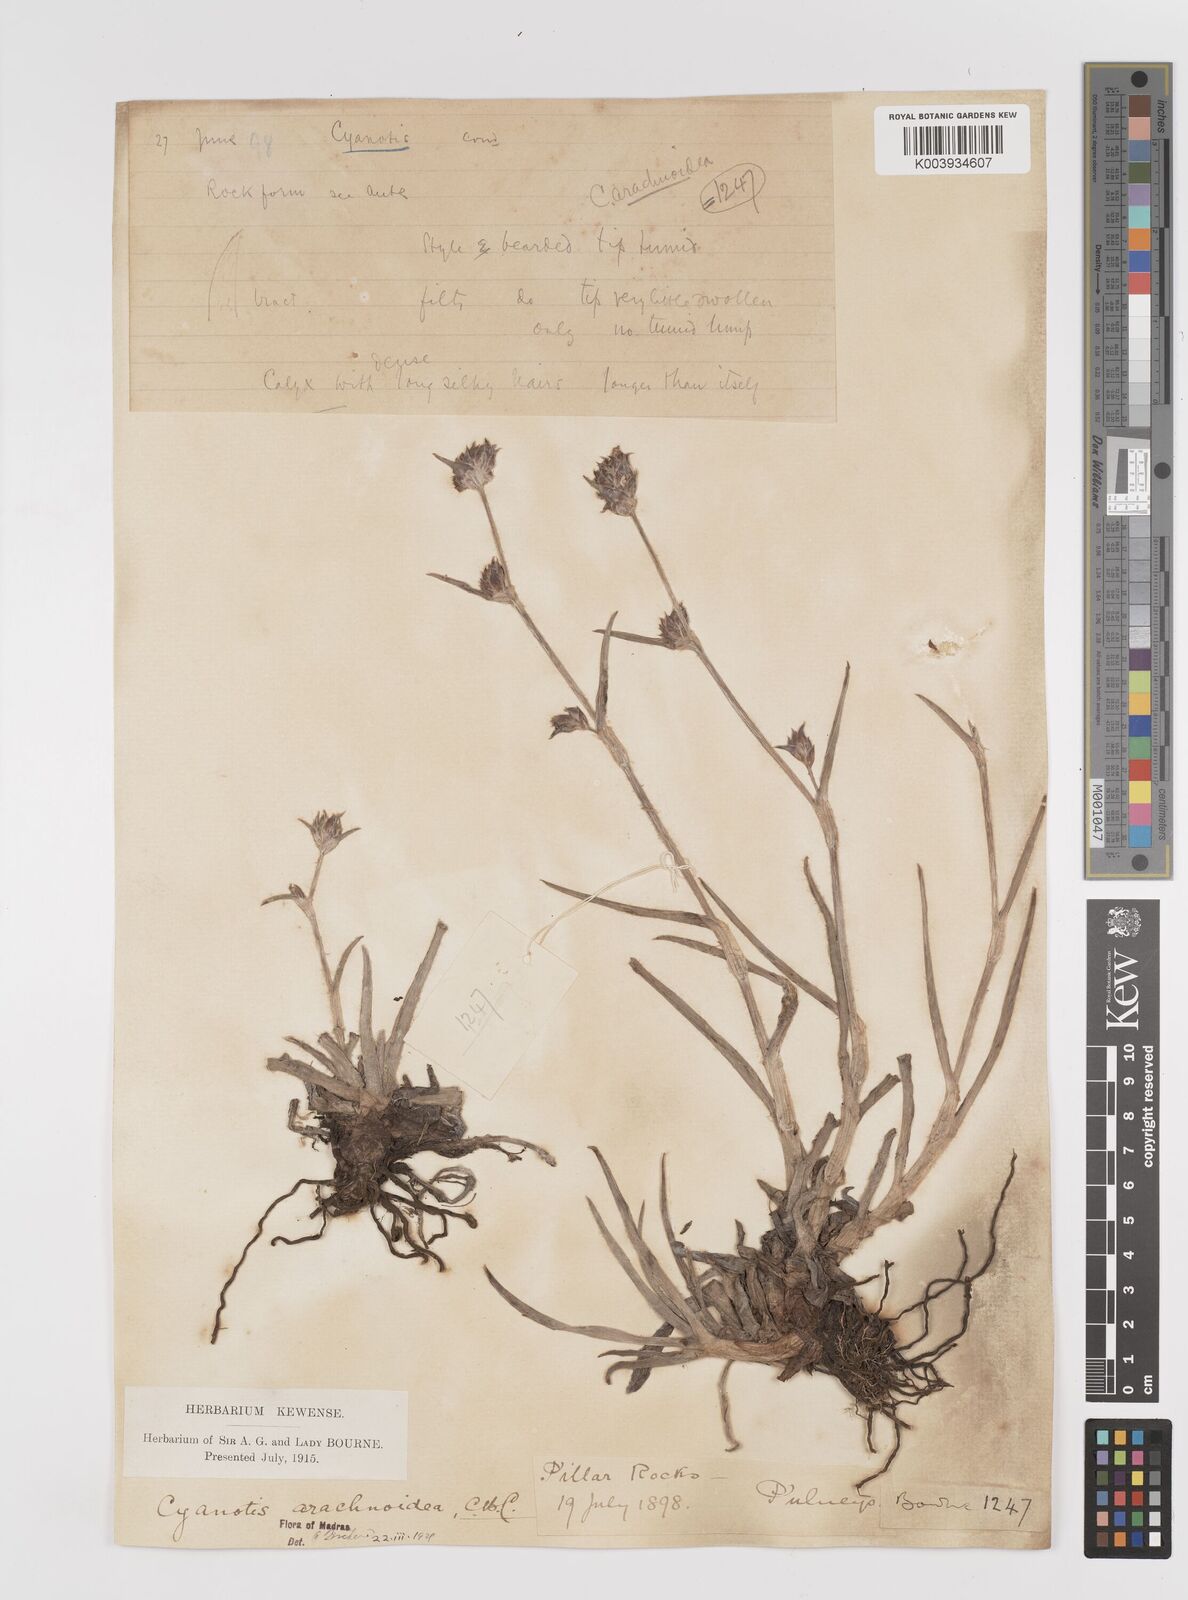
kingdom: Plantae
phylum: Tracheophyta
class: Liliopsida
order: Commelinales
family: Commelinaceae
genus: Cyanotis
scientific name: Cyanotis arachnoidea
